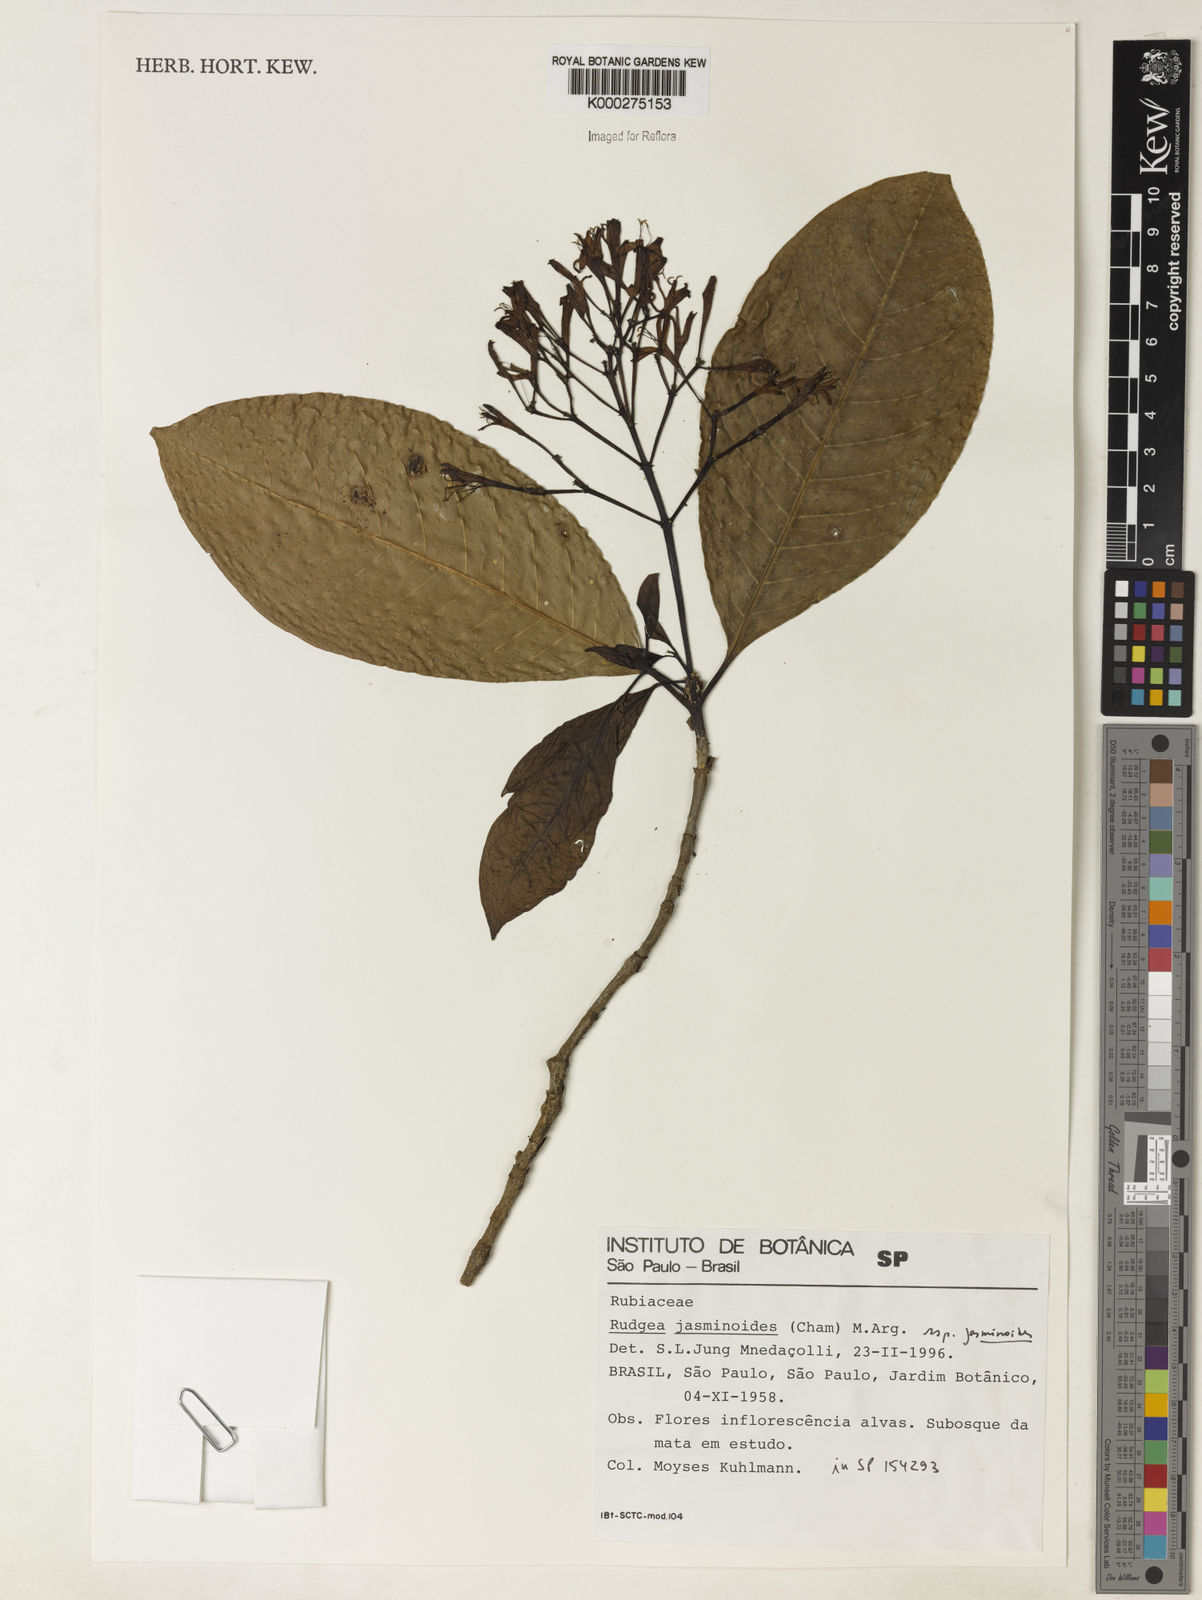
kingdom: Plantae
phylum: Tracheophyta
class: Magnoliopsida
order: Gentianales
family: Rubiaceae
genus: Rudgea
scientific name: Rudgea jasminoides
